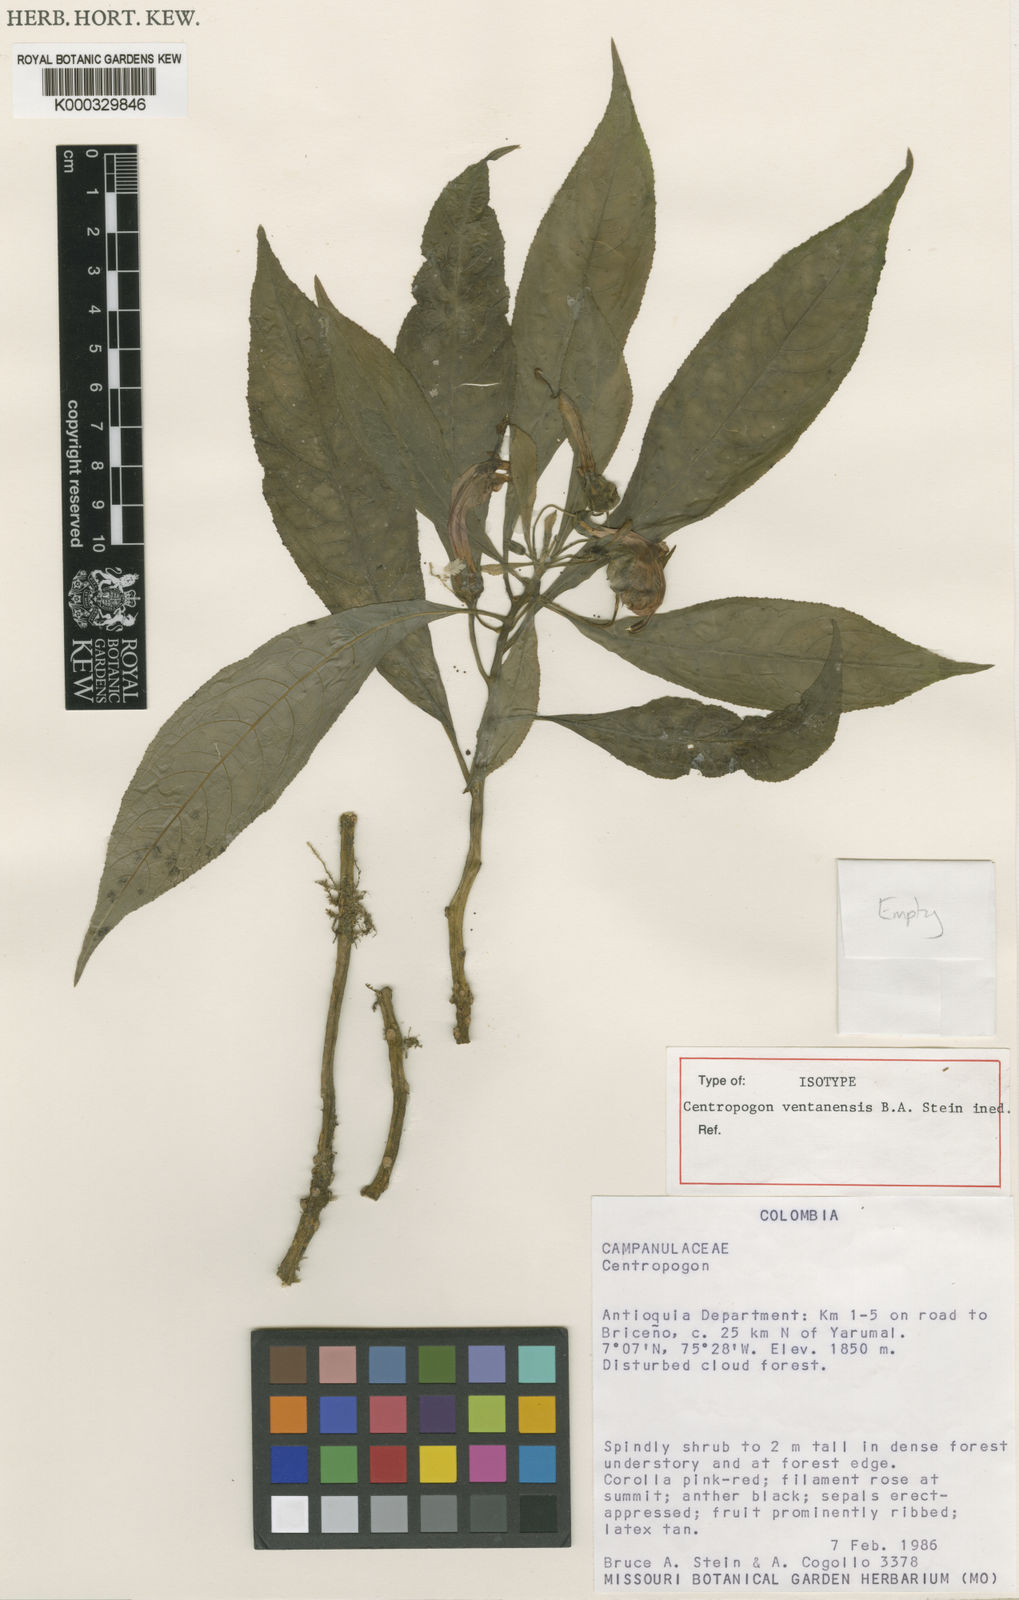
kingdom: Plantae
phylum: Tracheophyta
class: Magnoliopsida
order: Asterales
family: Campanulaceae
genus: Centropogon
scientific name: Centropogon
